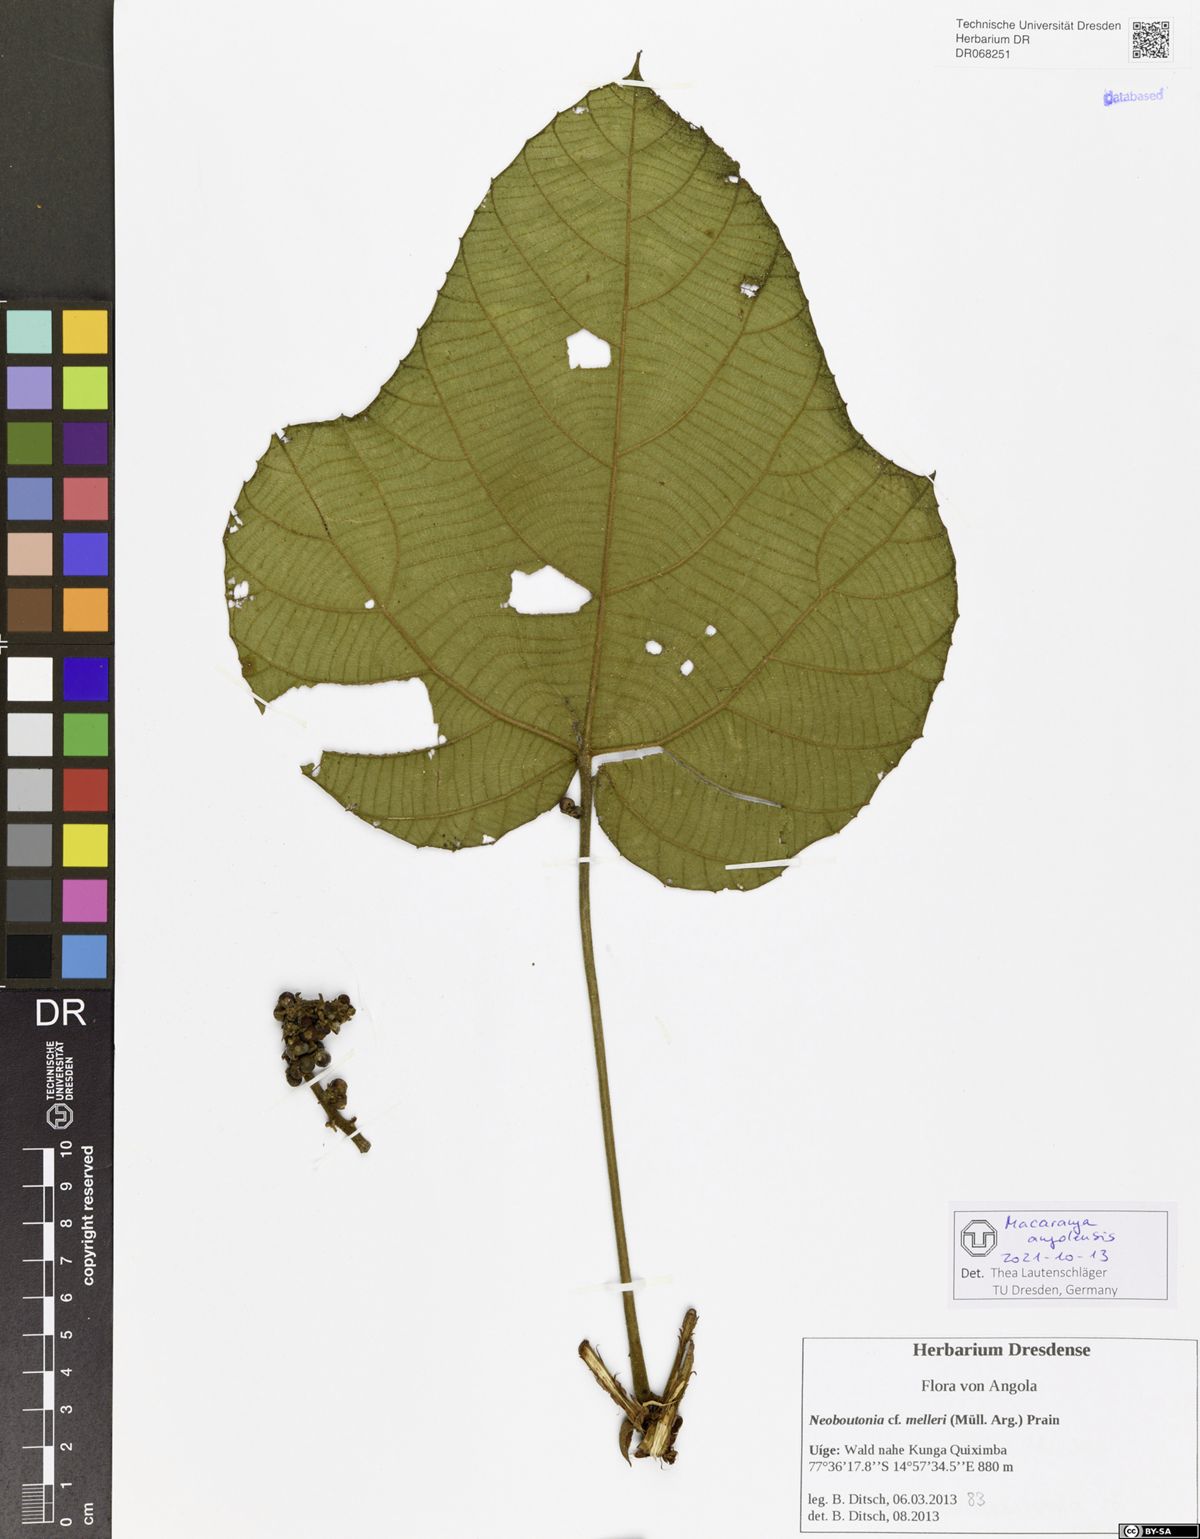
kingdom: Plantae
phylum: Tracheophyta
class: Magnoliopsida
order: Malpighiales
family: Euphorbiaceae
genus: Macaranga
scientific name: Macaranga angolensis
